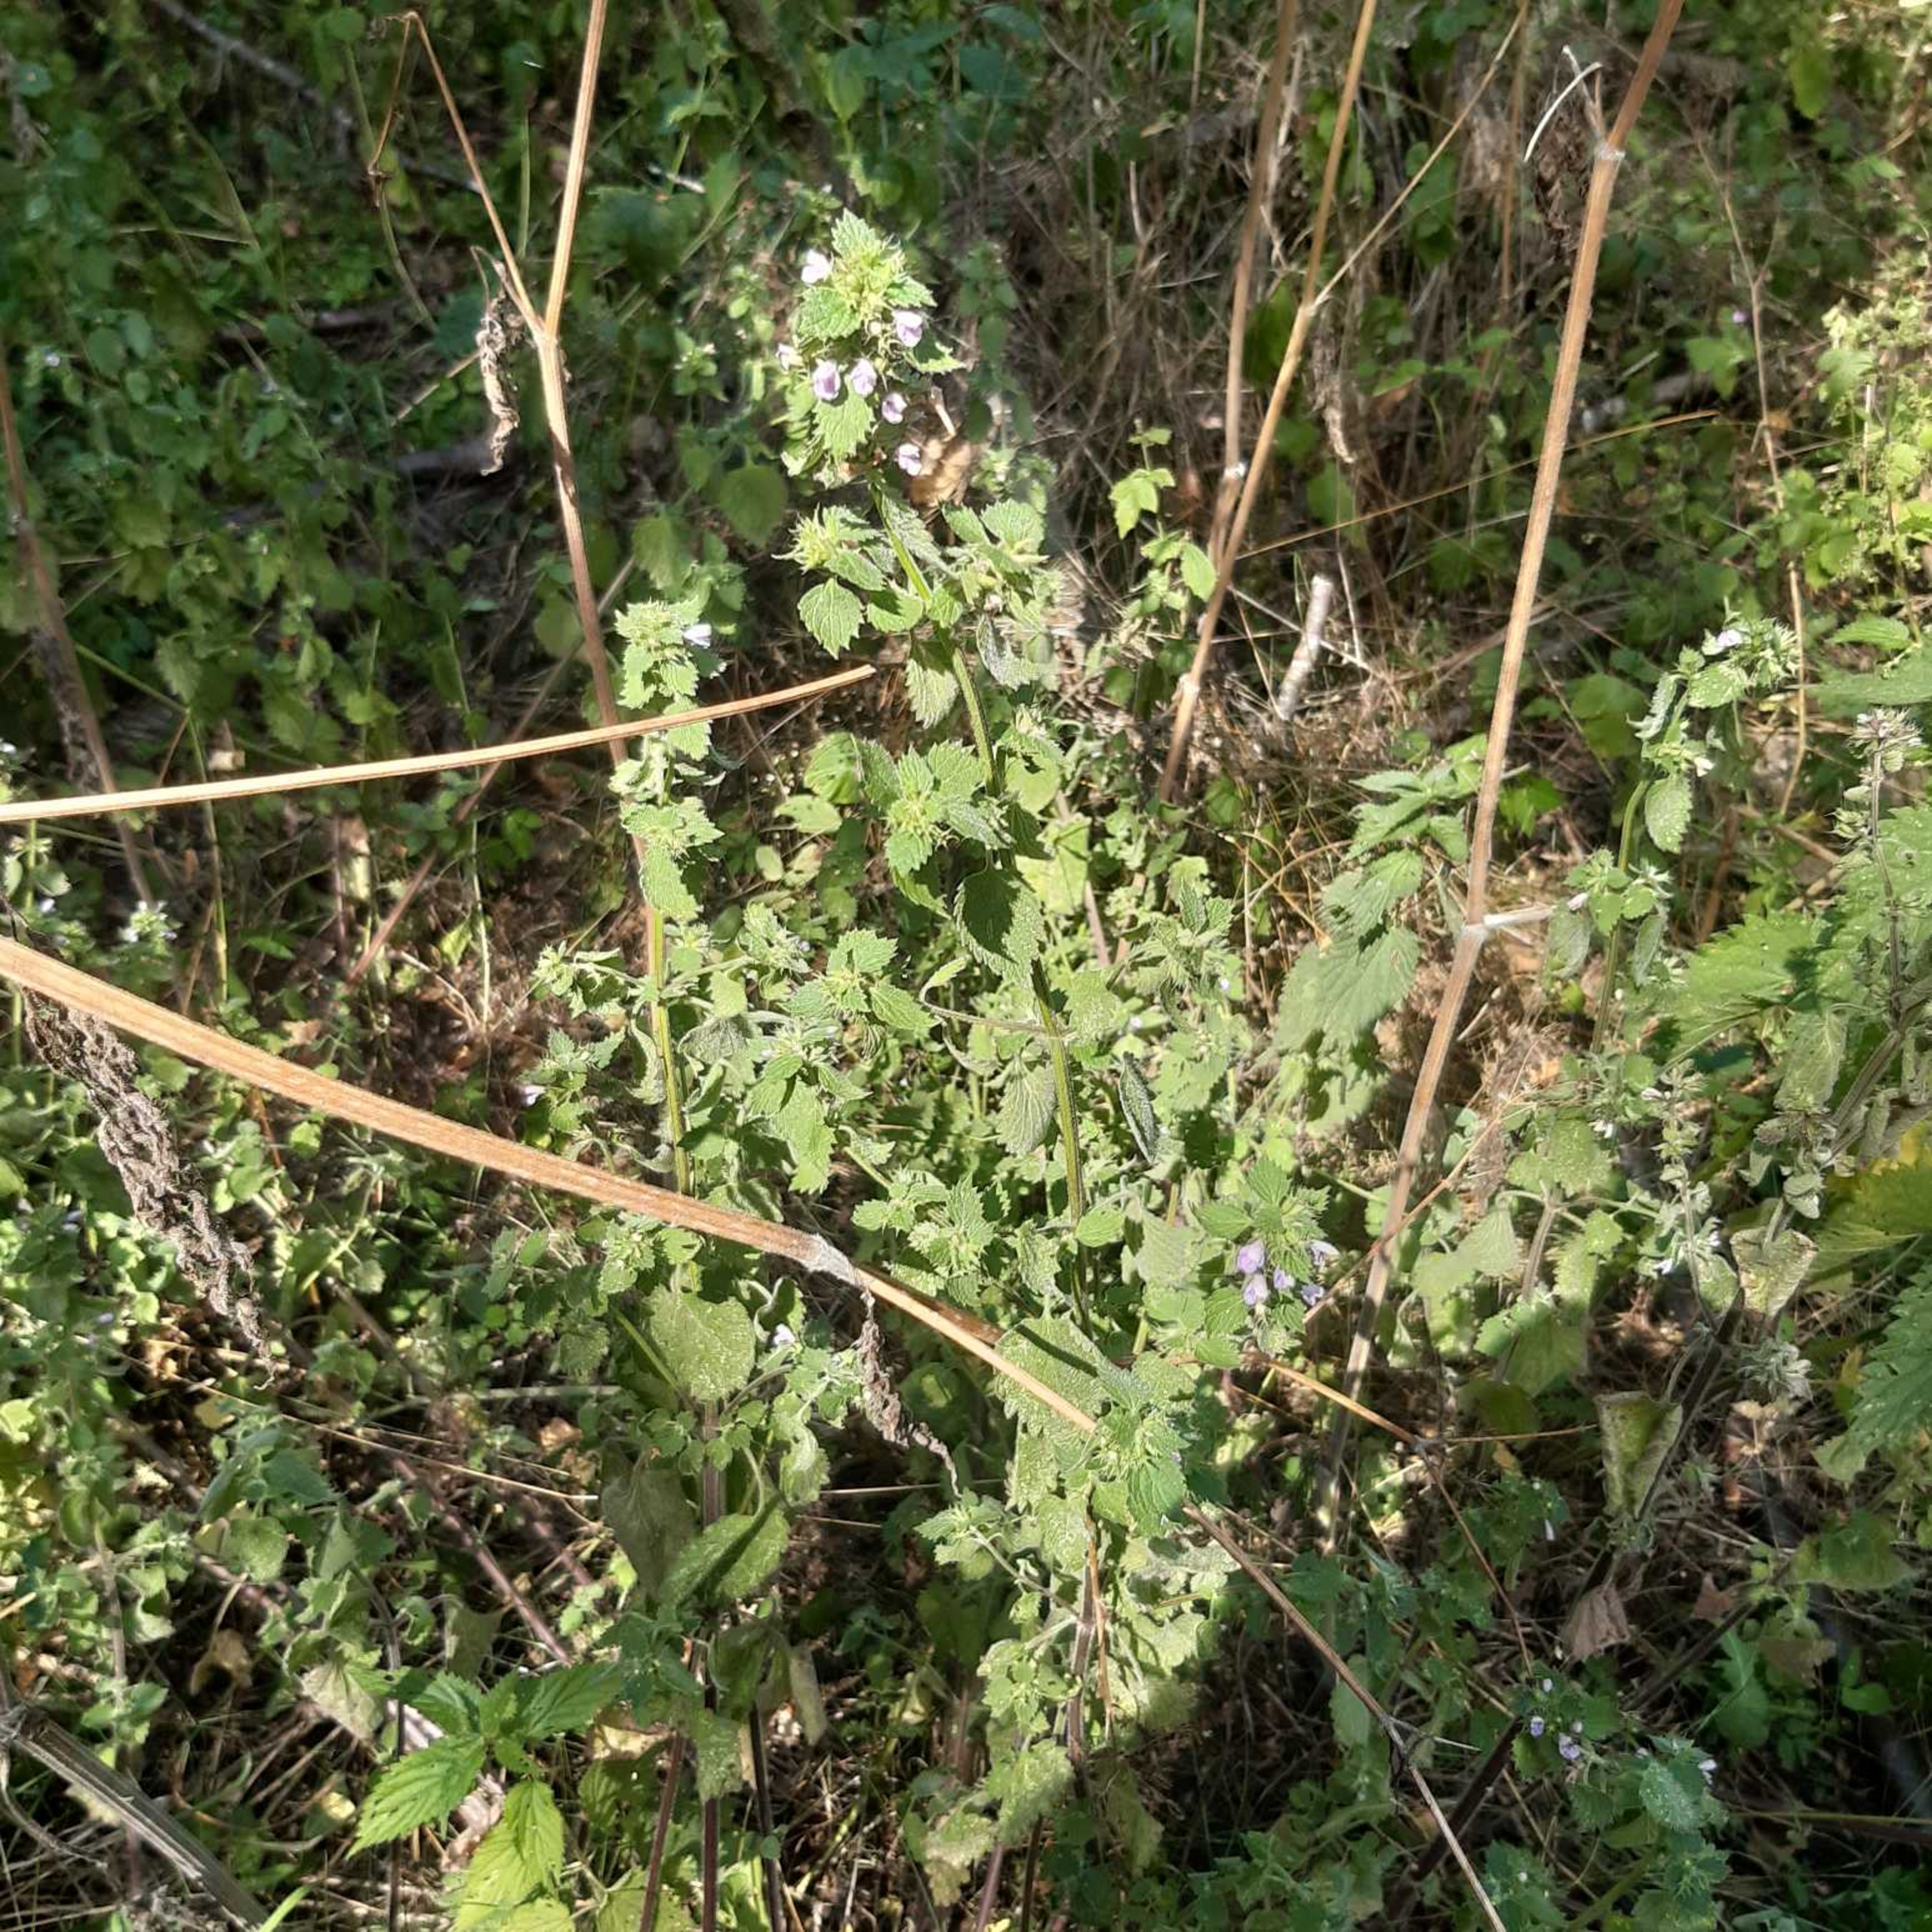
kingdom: Plantae
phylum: Tracheophyta
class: Magnoliopsida
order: Lamiales
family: Lamiaceae
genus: Ballota
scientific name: Ballota nigra
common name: Rød tandbæger
